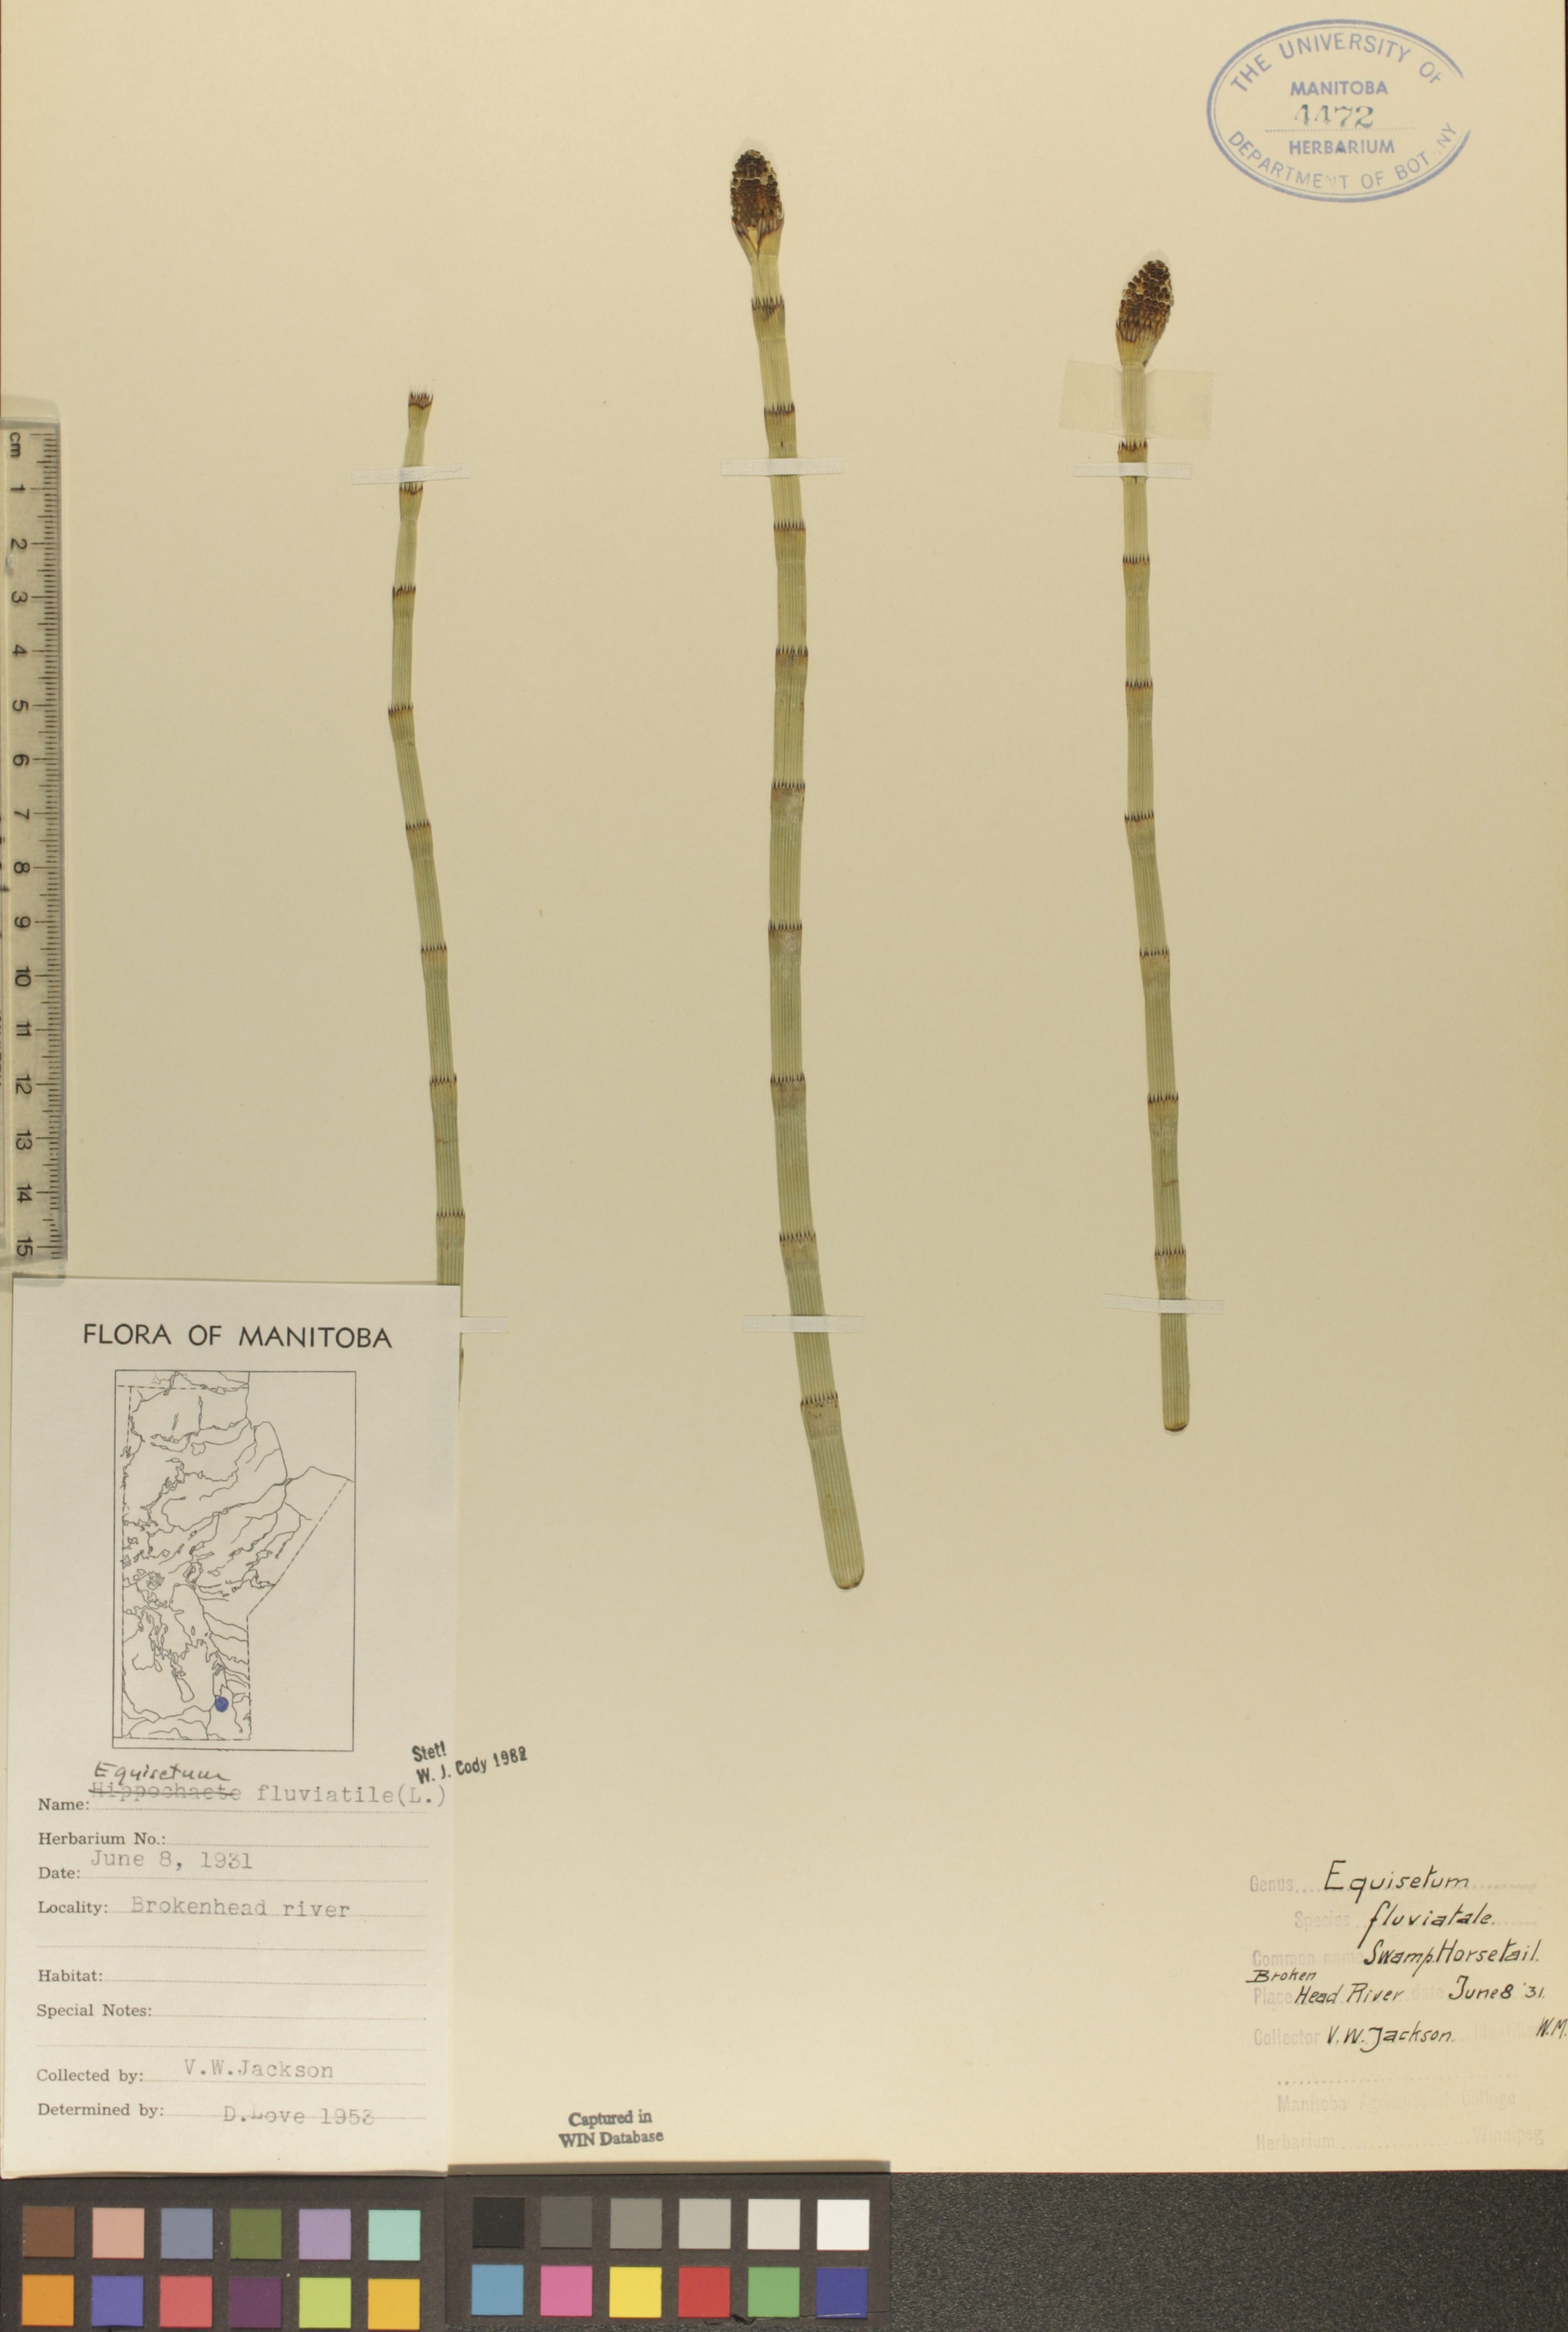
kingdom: Plantae
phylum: Tracheophyta
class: Polypodiopsida
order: Equisetales
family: Equisetaceae
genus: Equisetum
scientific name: Equisetum fluviatile
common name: Water horsetail
